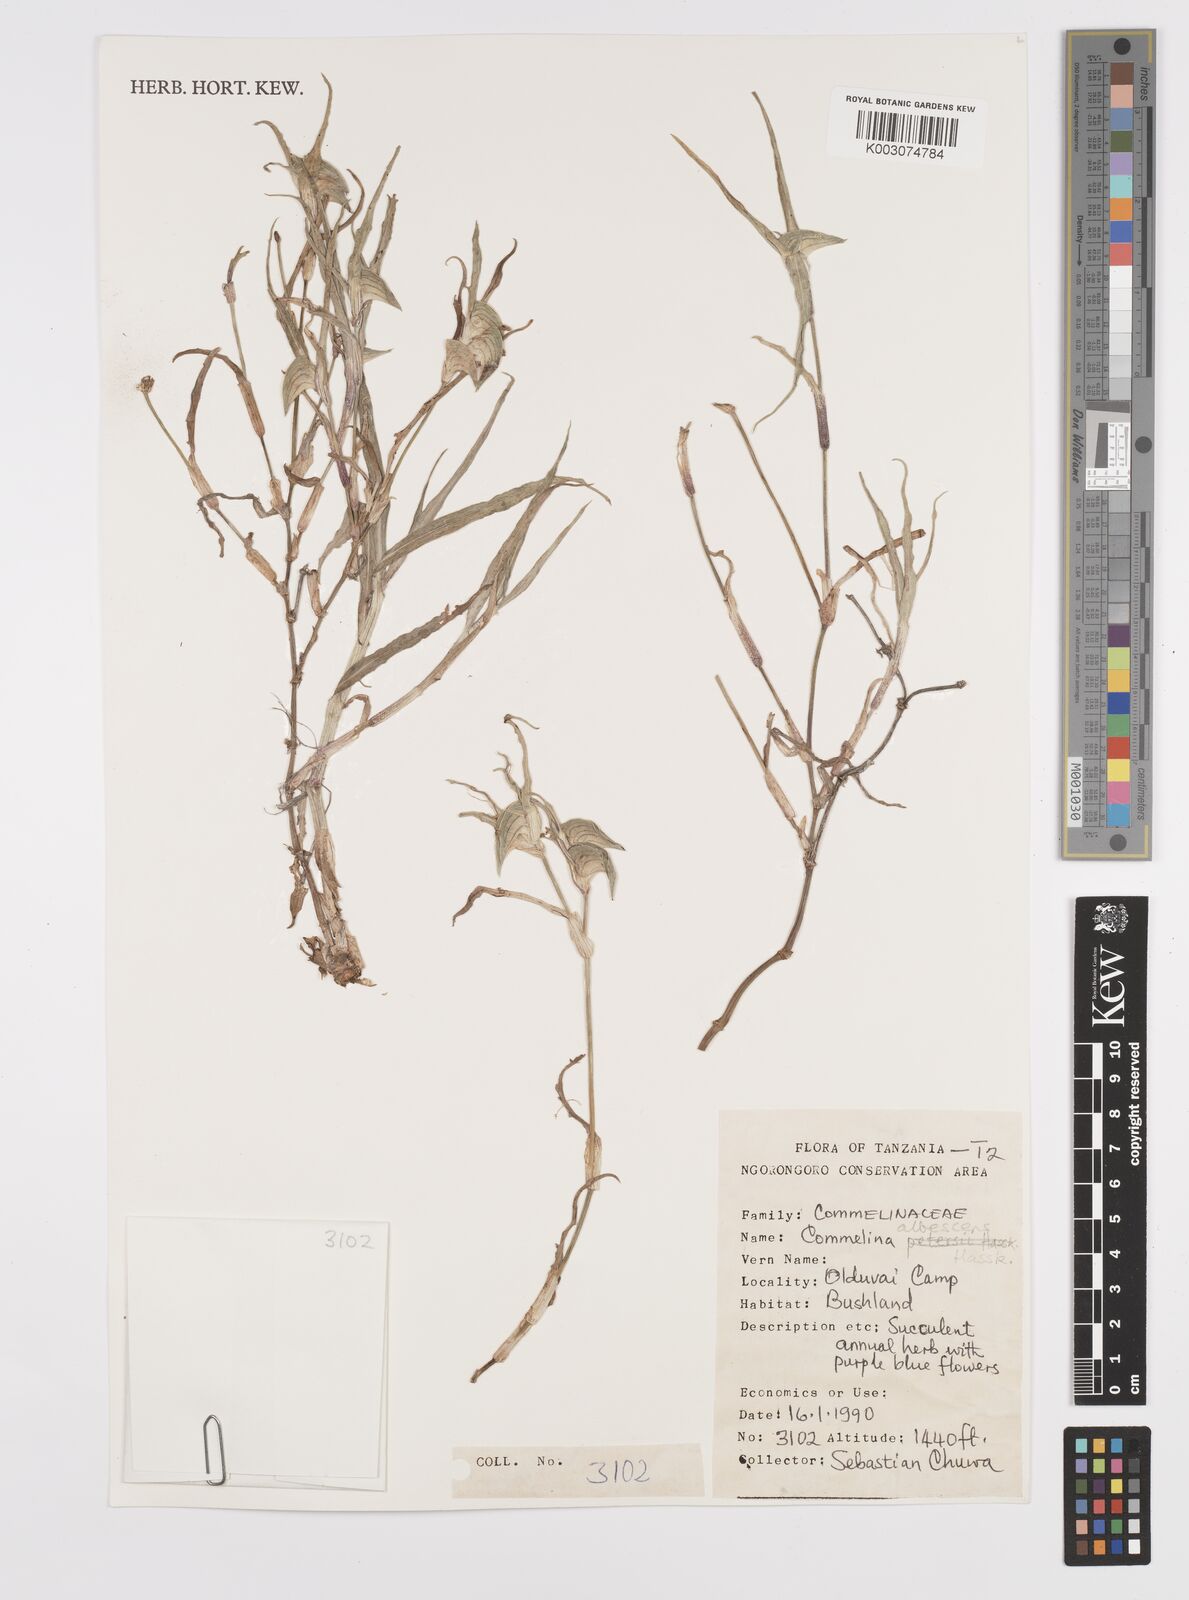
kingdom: Plantae
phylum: Tracheophyta
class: Liliopsida
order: Commelinales
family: Commelinaceae
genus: Commelina
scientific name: Commelina albescens
